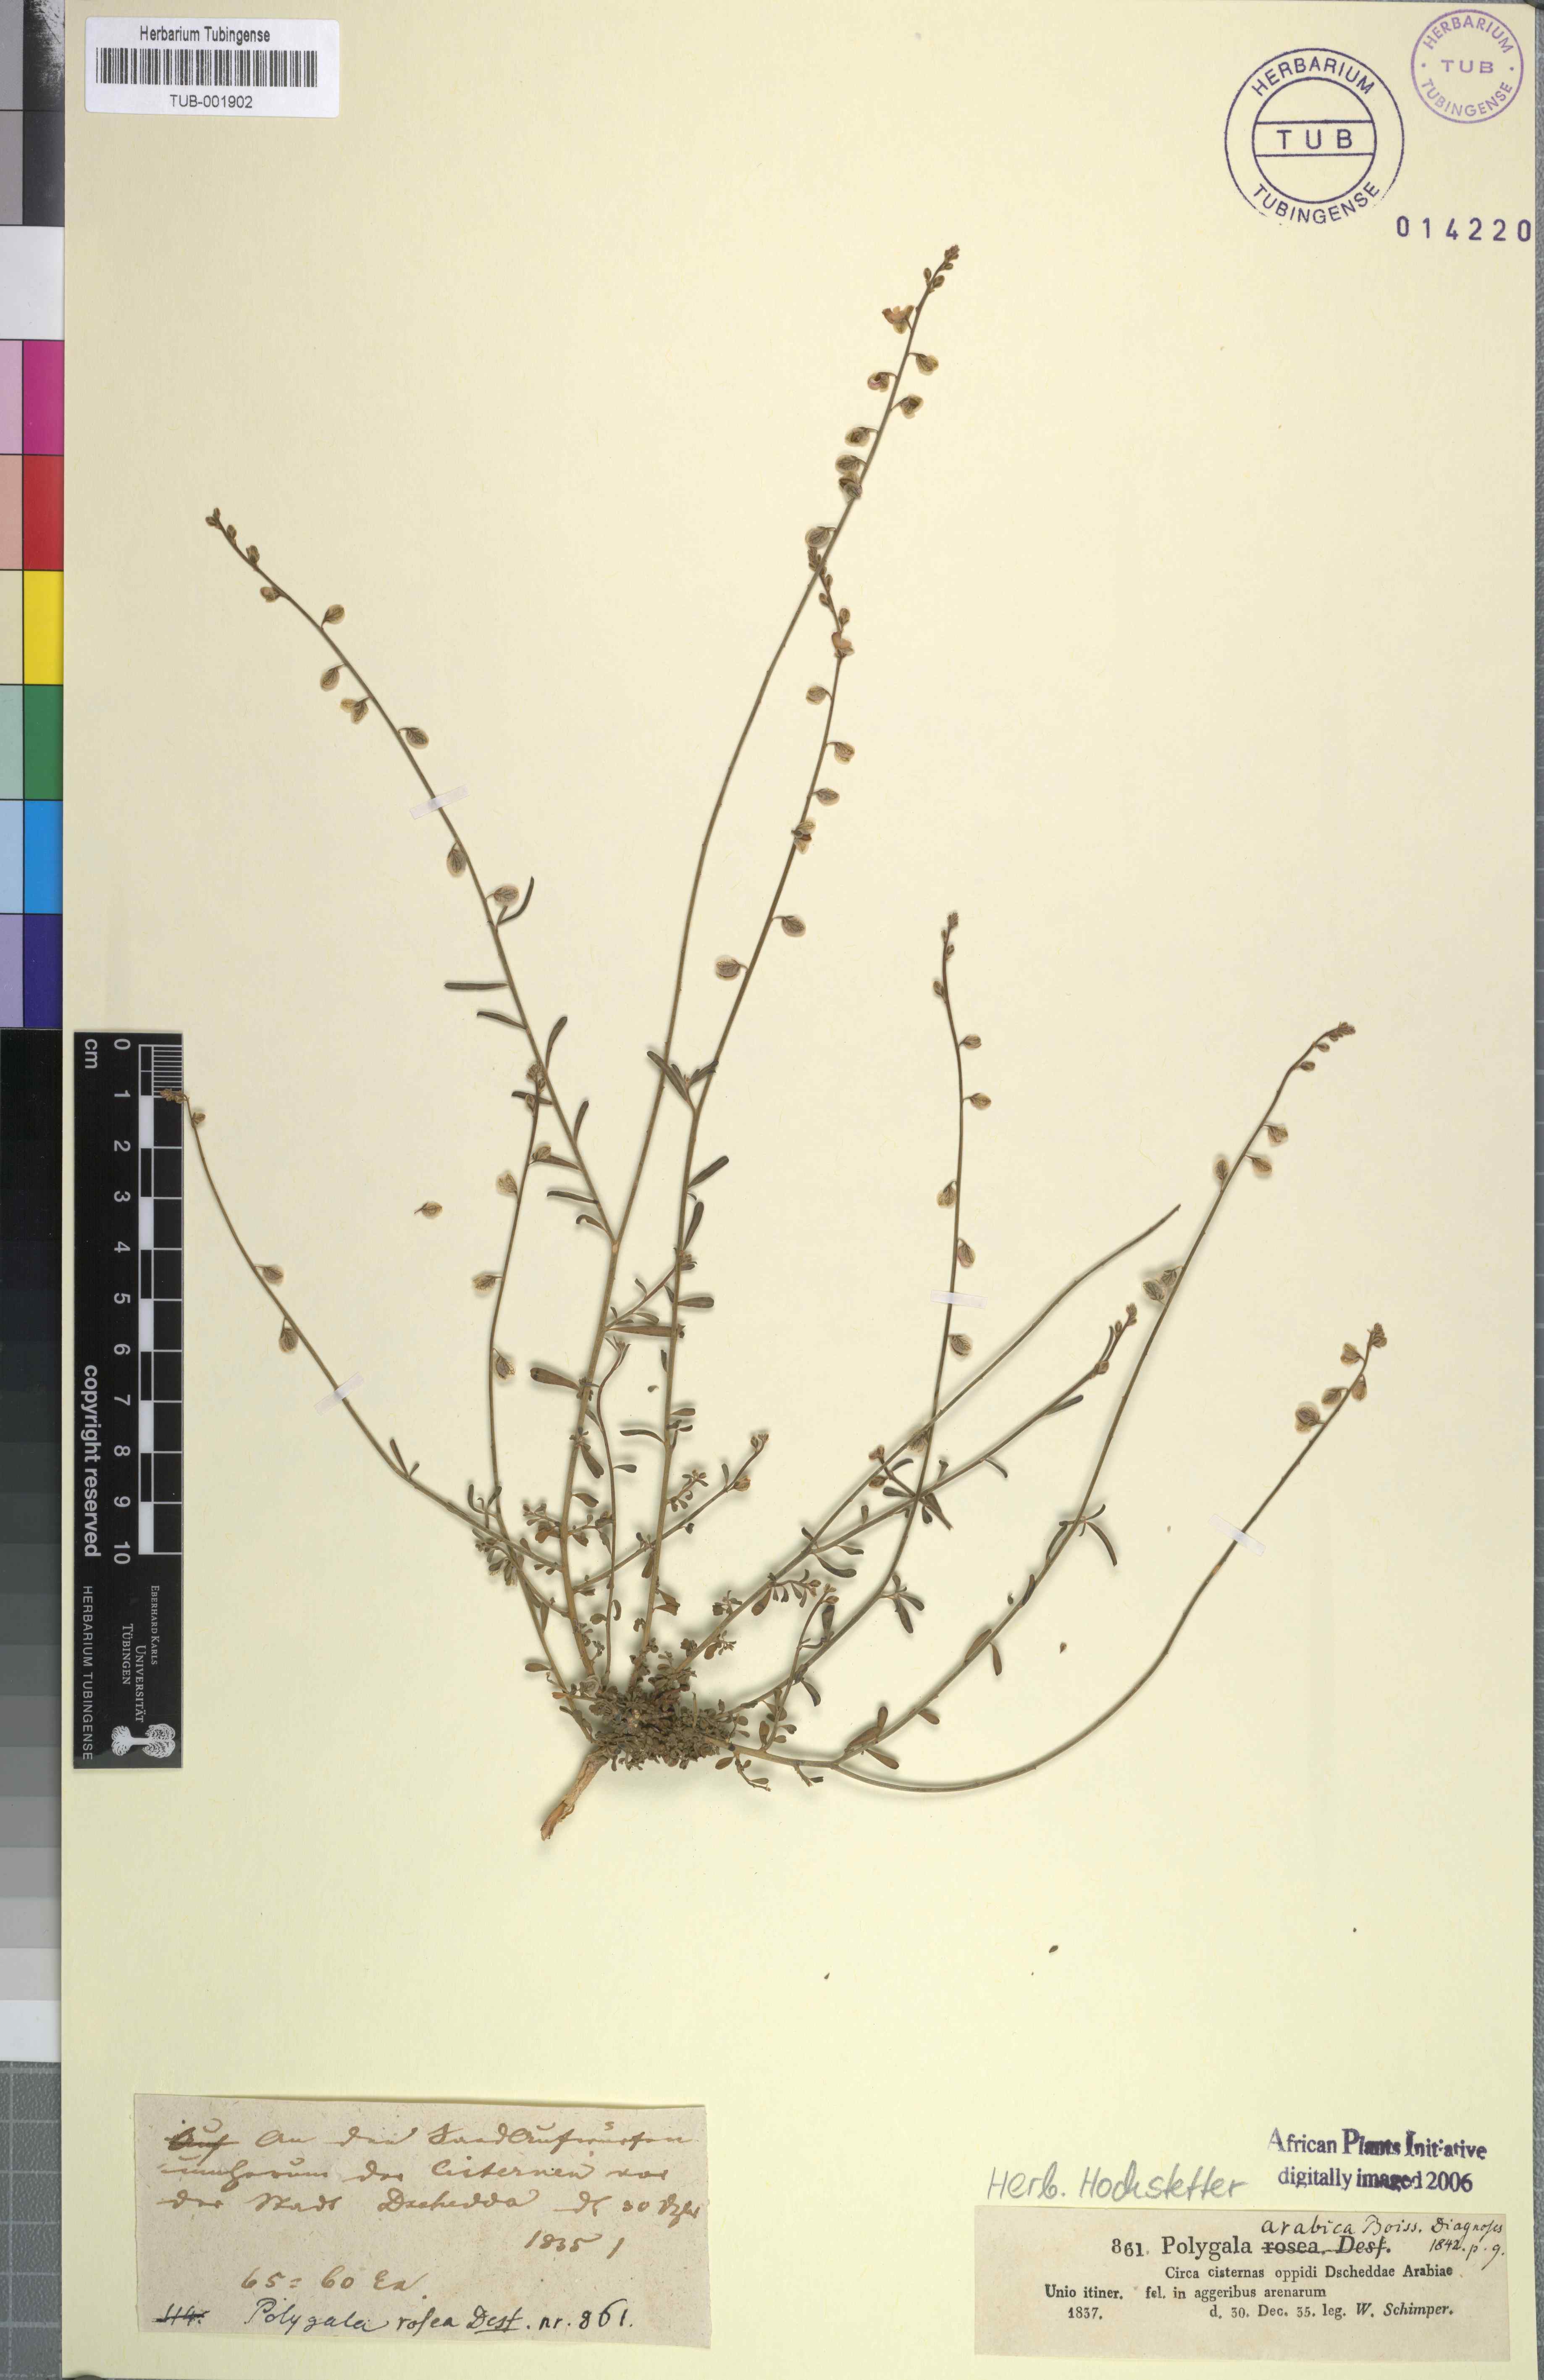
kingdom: Plantae
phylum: Tracheophyta
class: Magnoliopsida
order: Fabales
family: Polygalaceae
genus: Polygala
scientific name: Polygala irregularis
